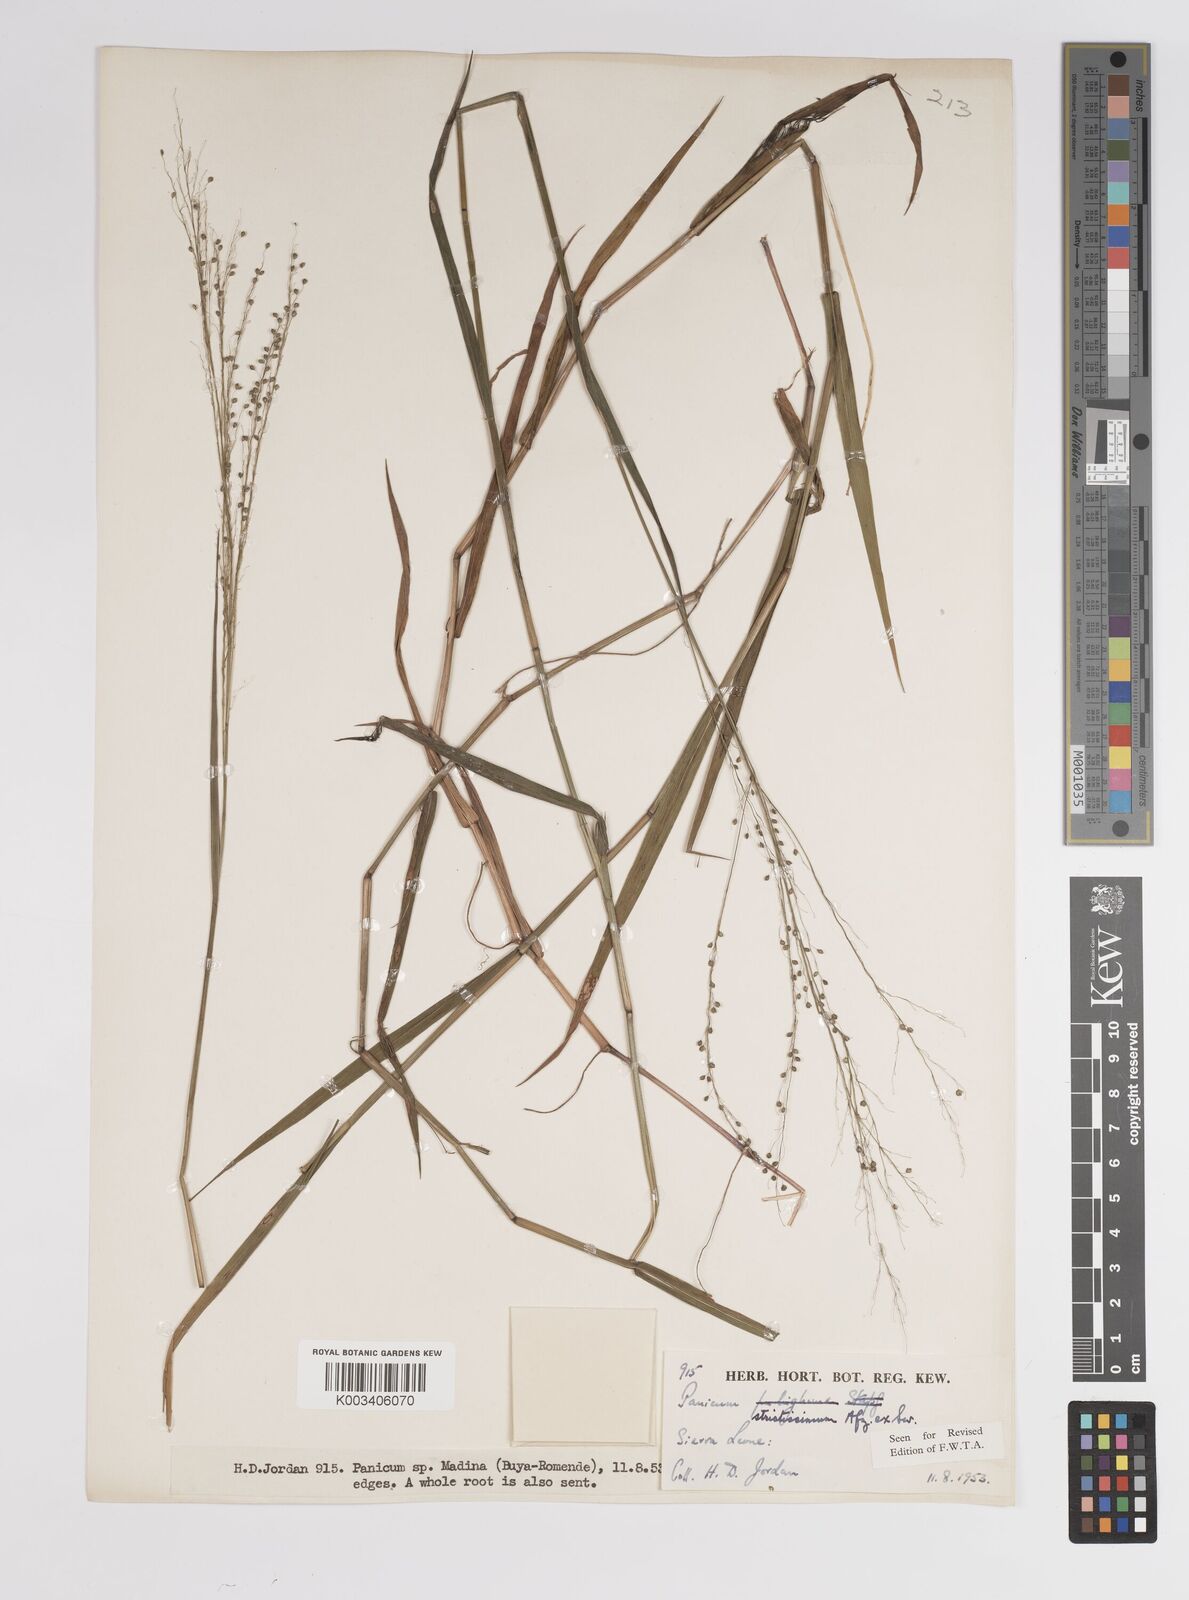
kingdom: Plantae
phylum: Tracheophyta
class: Liliopsida
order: Poales
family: Poaceae
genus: Panicum
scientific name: Panicum eickii
